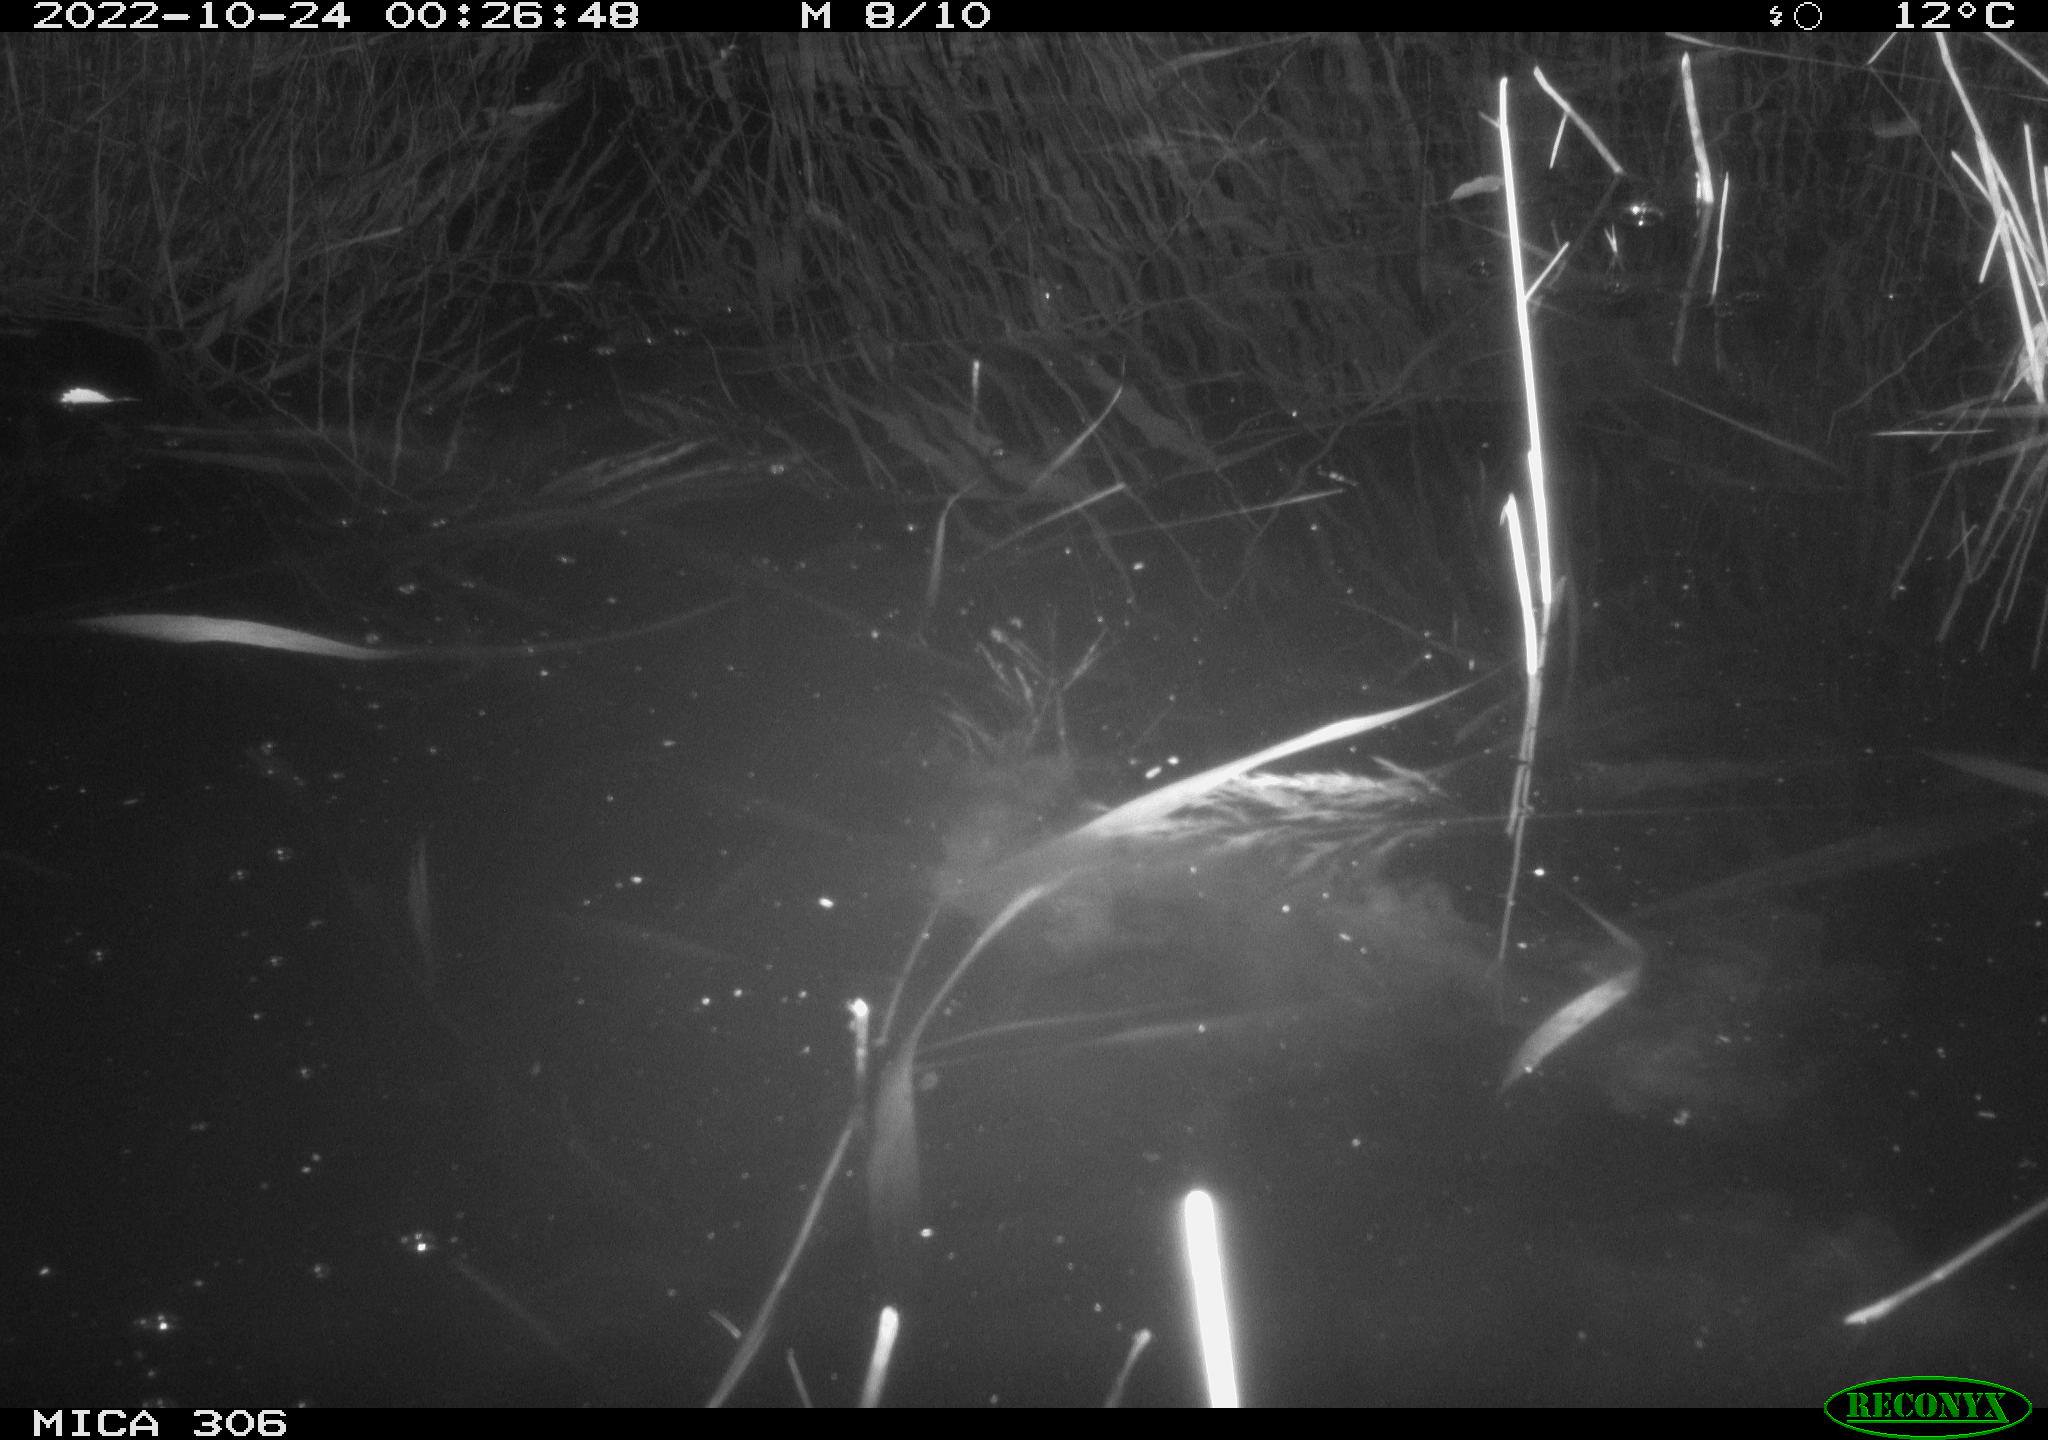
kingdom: Animalia
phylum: Chordata
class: Mammalia
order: Rodentia
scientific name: Rodentia
